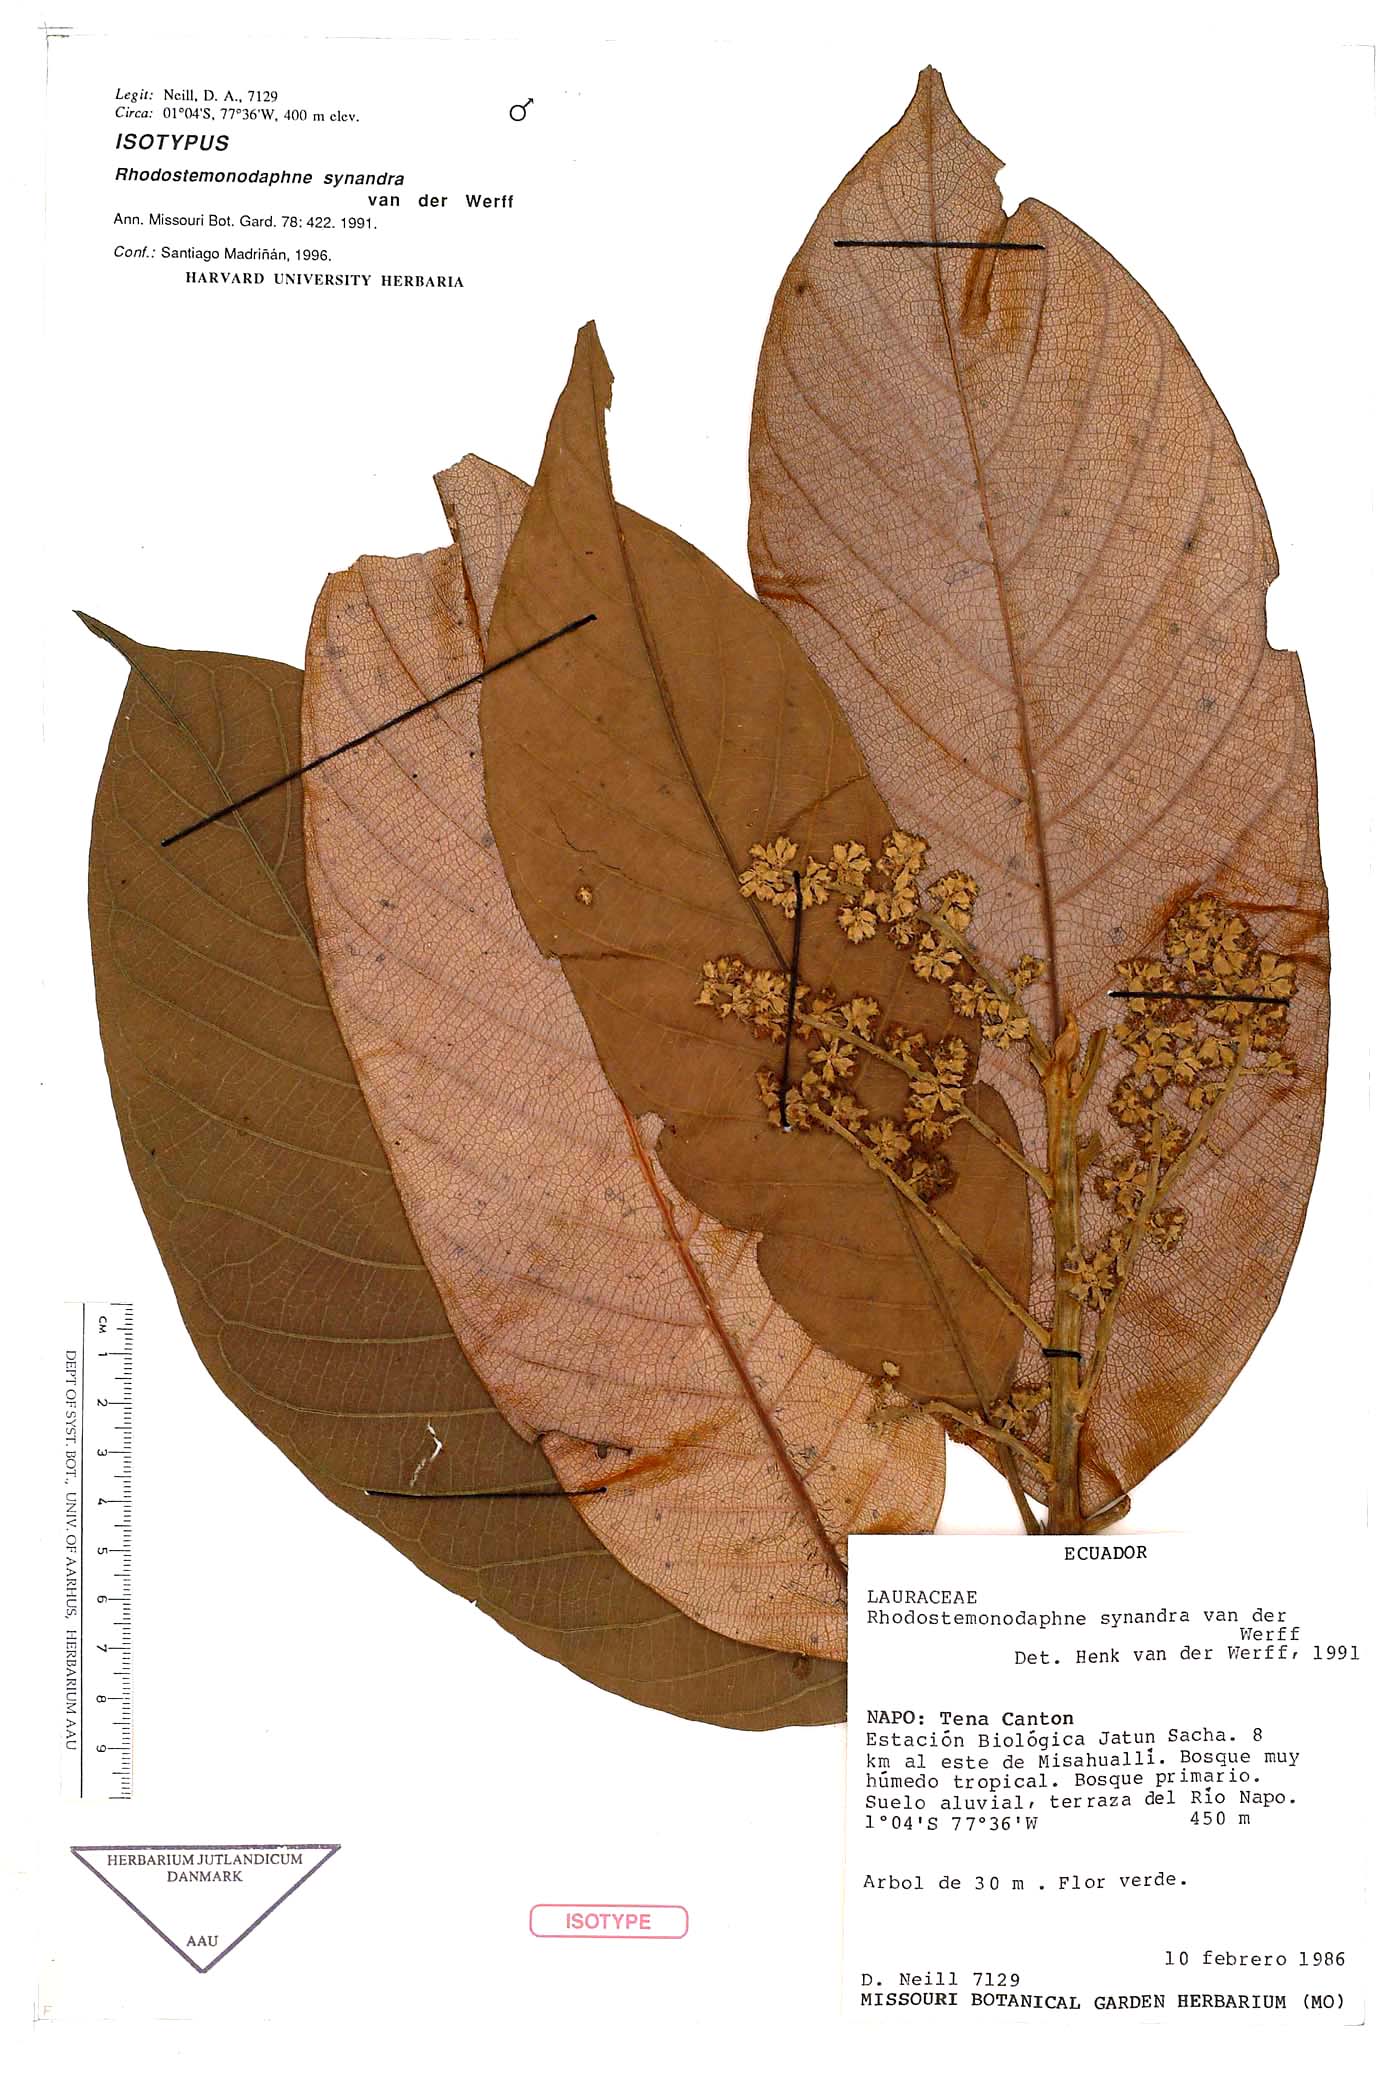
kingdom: Plantae
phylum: Tracheophyta
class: Magnoliopsida
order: Laurales
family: Lauraceae
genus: Rhodostemonodaphne
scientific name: Rhodostemonodaphne synandra
